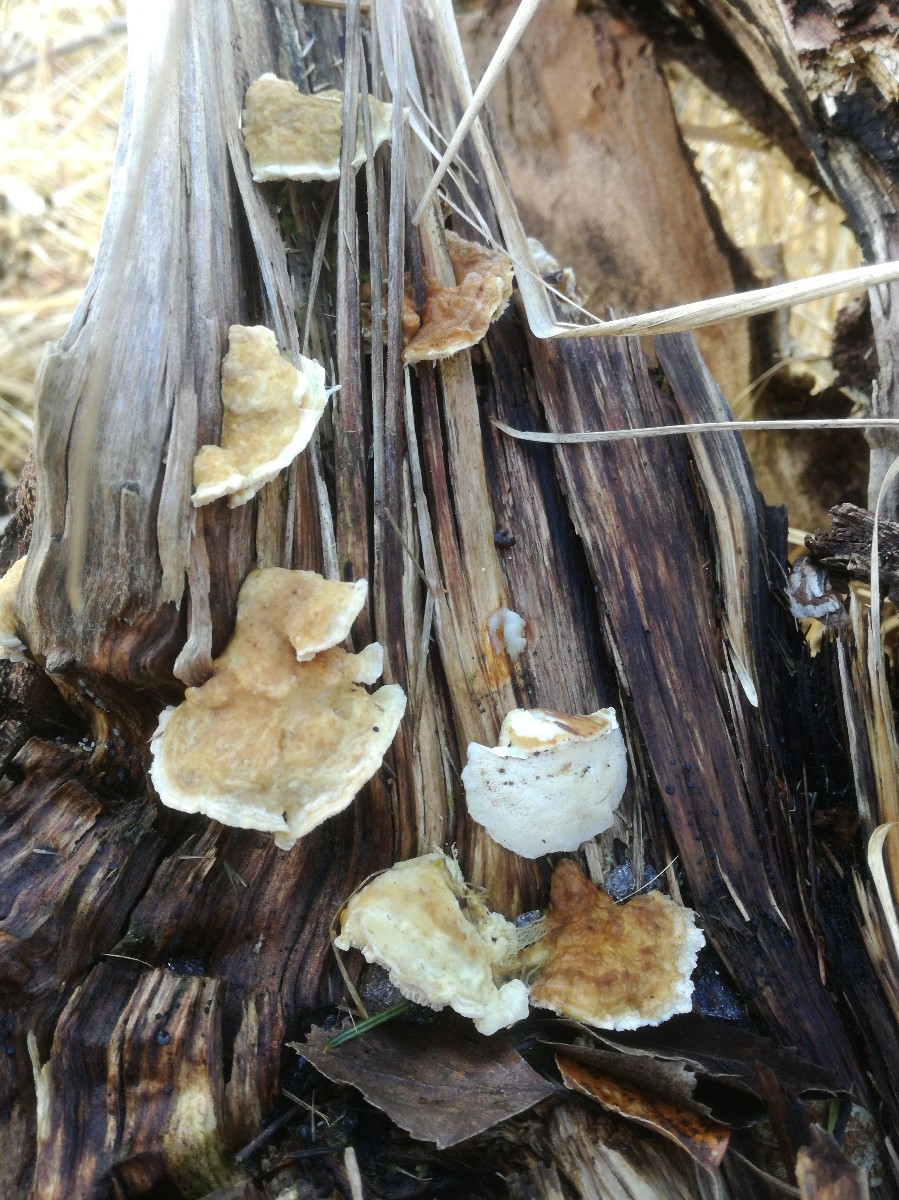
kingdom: Fungi
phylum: Basidiomycota
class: Agaricomycetes
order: Polyporales
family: Polyporaceae
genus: Trametes
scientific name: Trametes ochracea
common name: bæltet læderporesvamp
